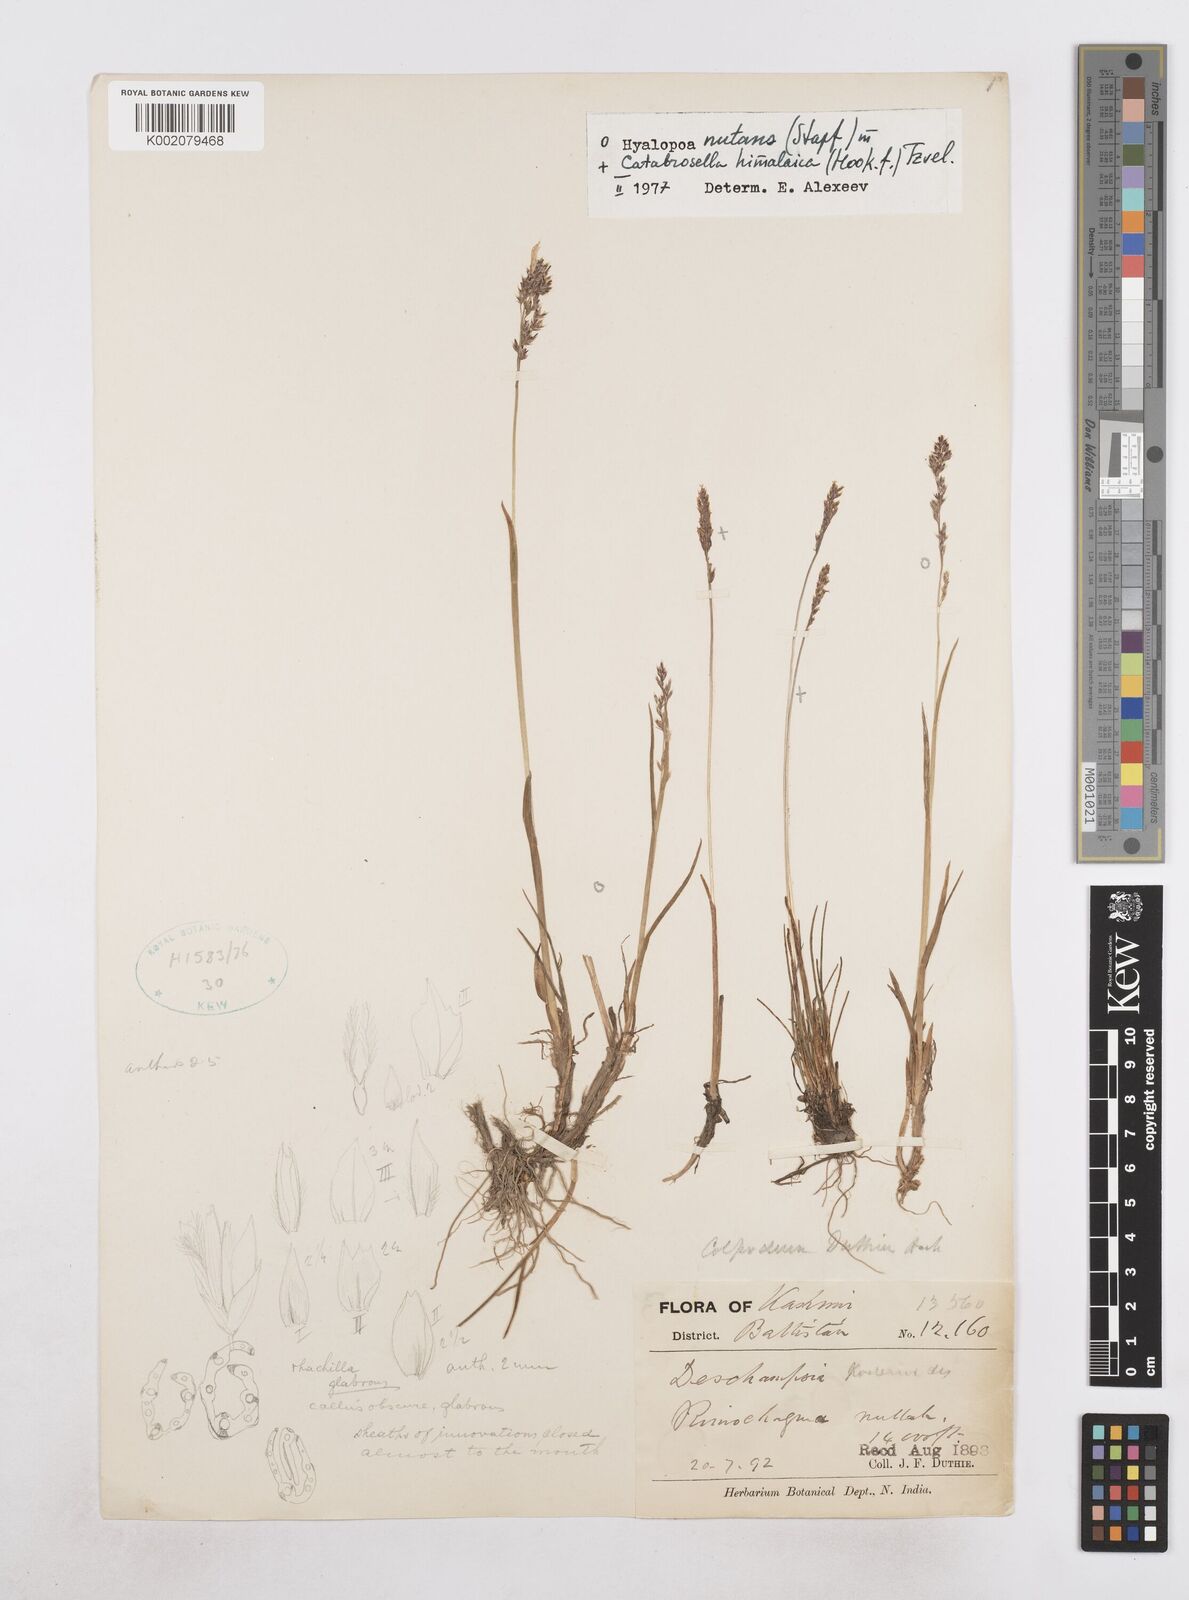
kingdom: Plantae
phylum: Tracheophyta
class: Liliopsida
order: Poales
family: Poaceae
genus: Catabrosella
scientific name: Catabrosella himalaica
